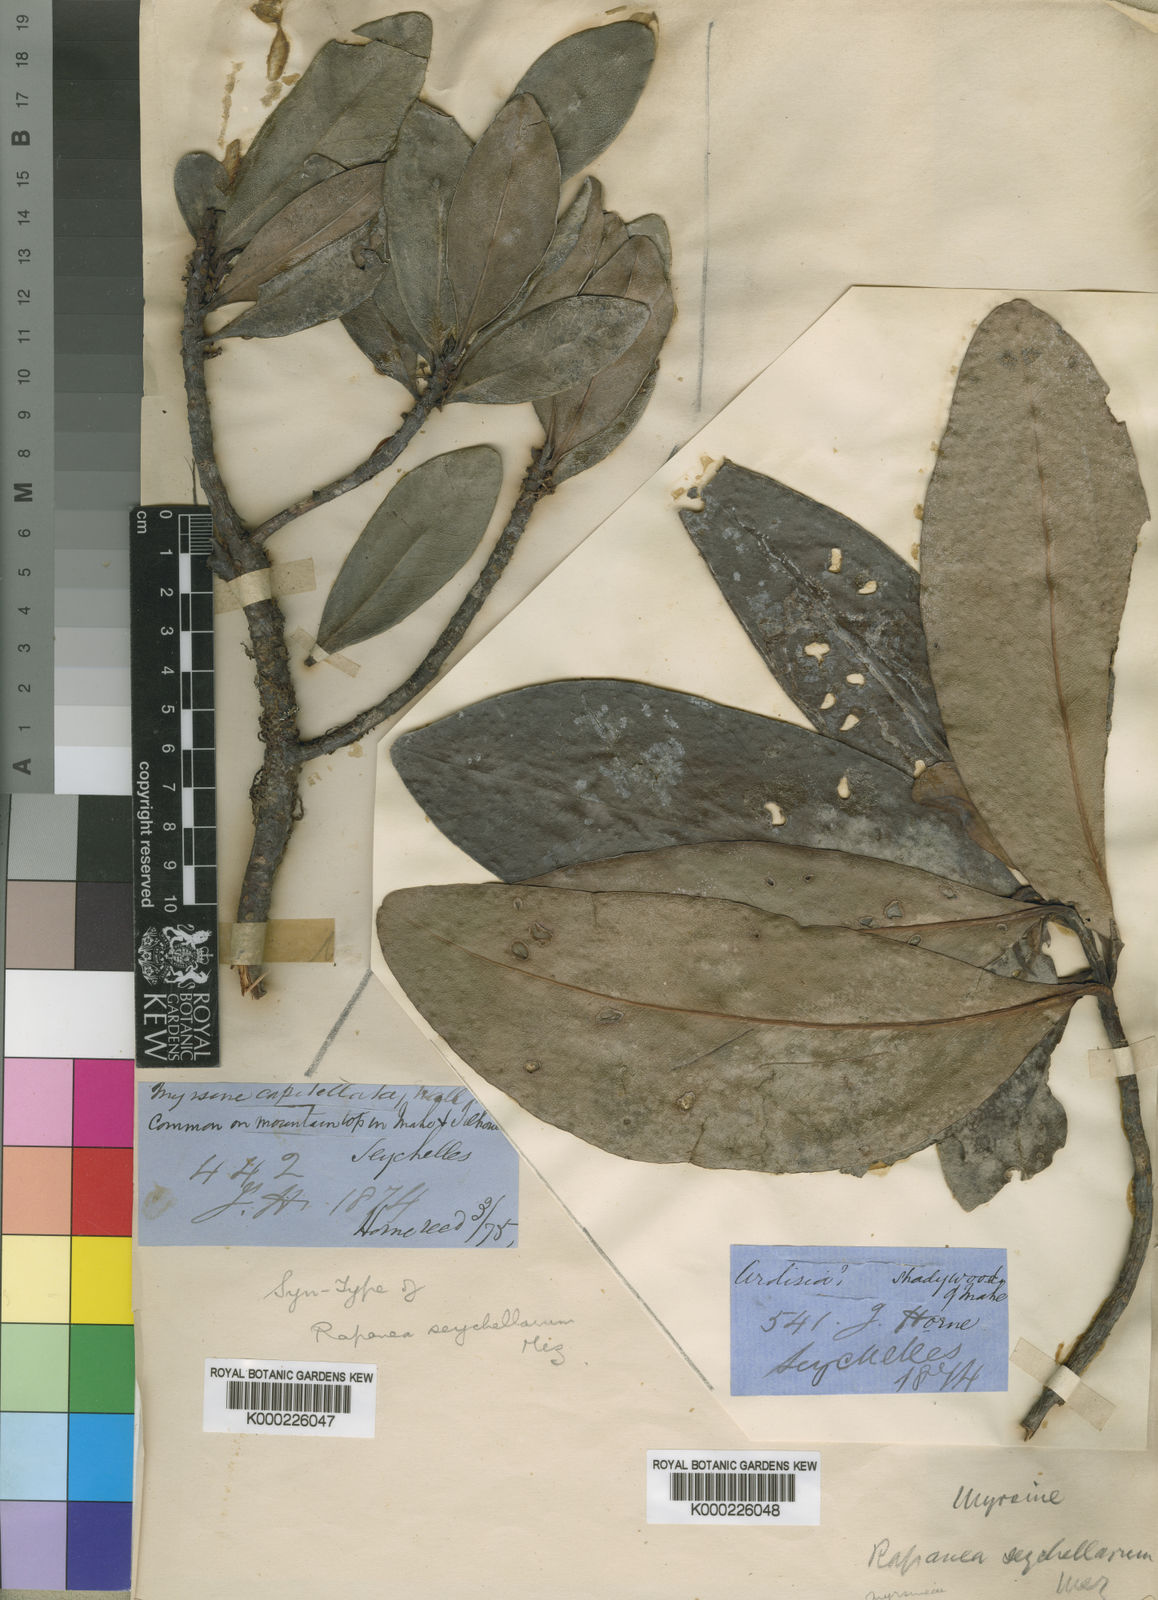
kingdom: Plantae
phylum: Tracheophyta
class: Magnoliopsida
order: Ericales
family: Primulaceae
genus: Myrsine
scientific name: Myrsine seychellarum
